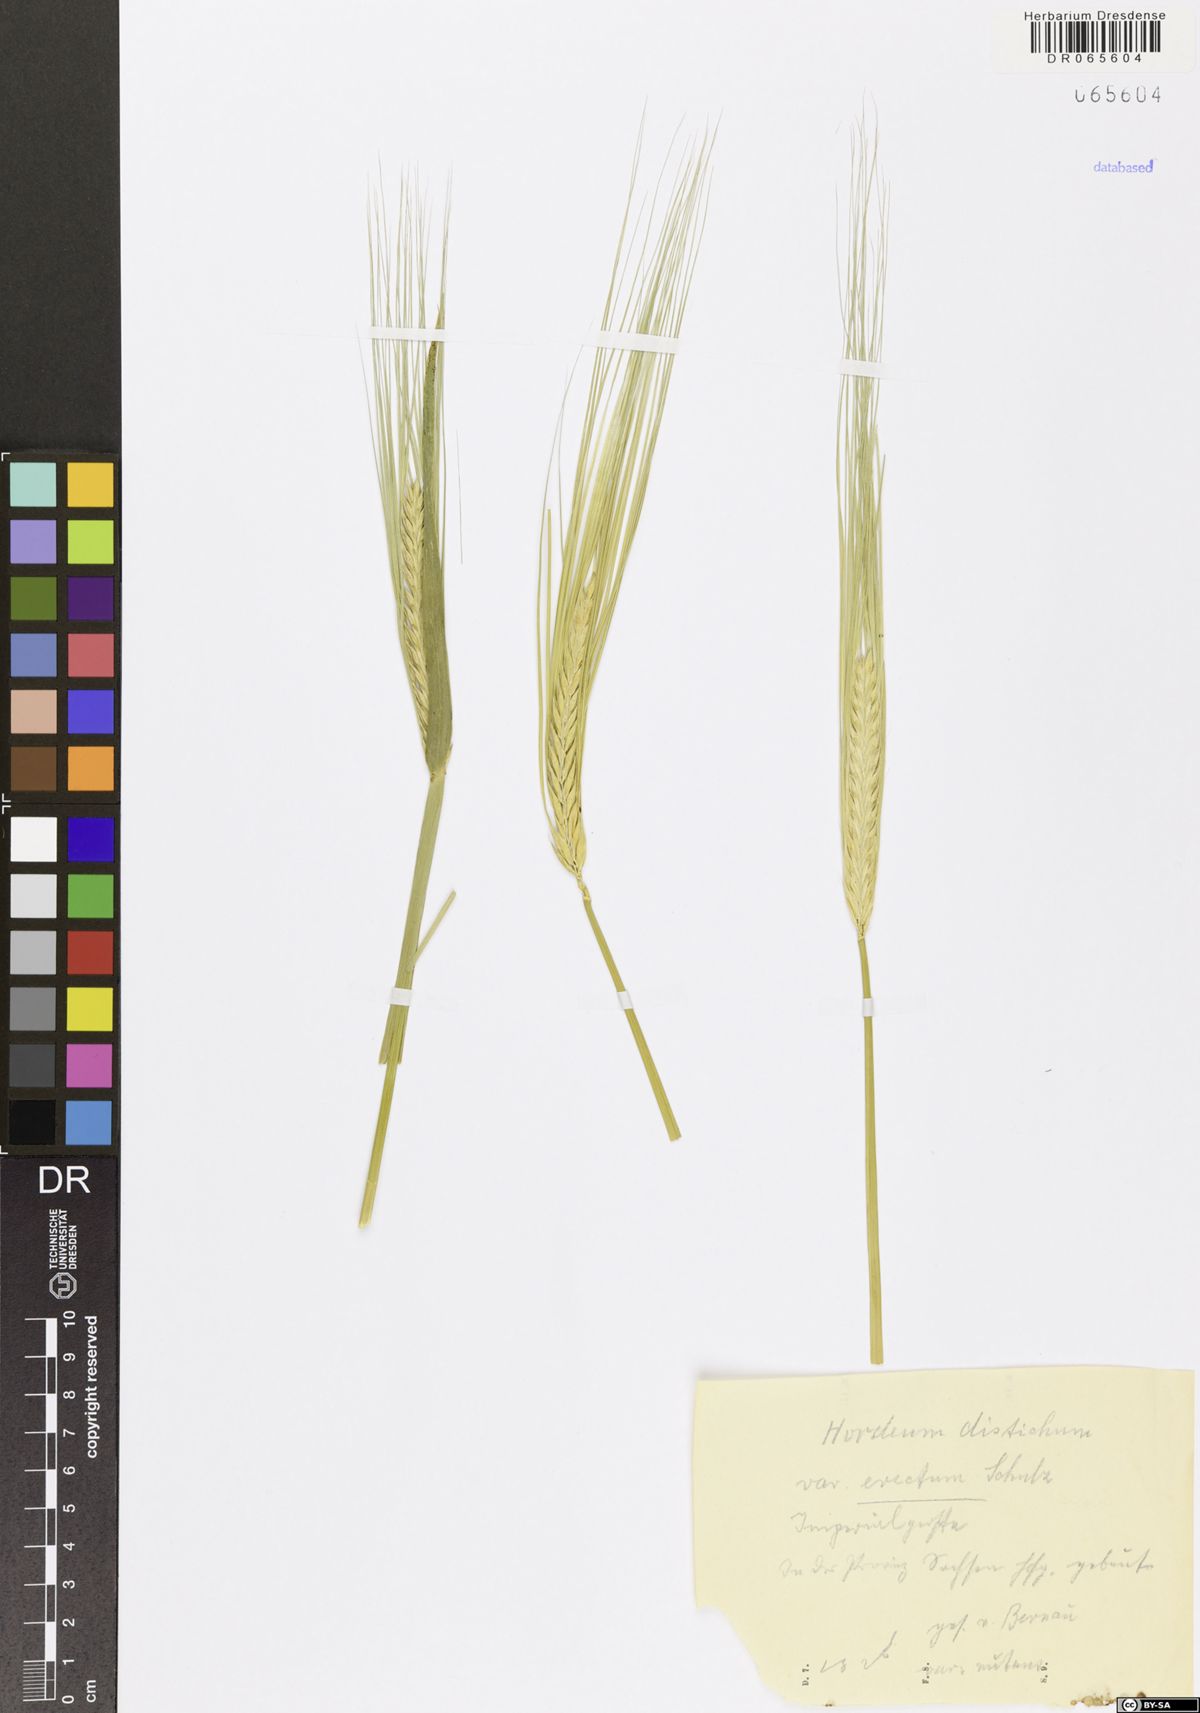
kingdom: Plantae
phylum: Tracheophyta
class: Liliopsida
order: Poales
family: Poaceae
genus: Hordeum
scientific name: Hordeum distichon
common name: Two-rowed barley
